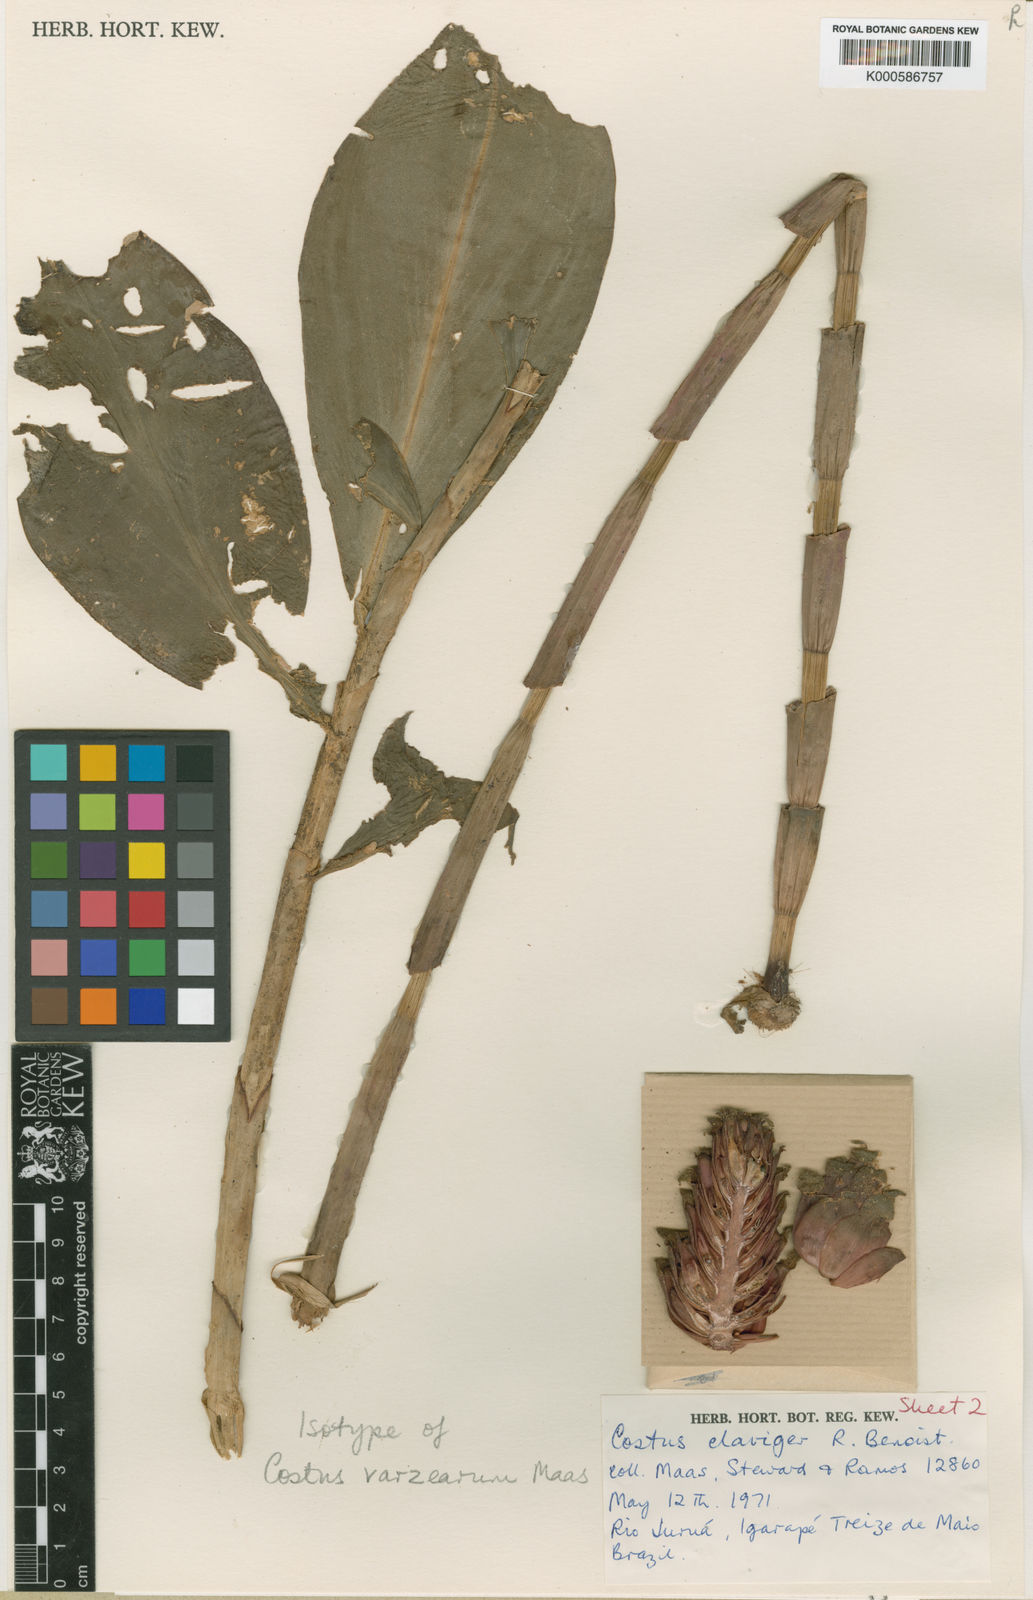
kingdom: Plantae
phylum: Tracheophyta
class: Liliopsida
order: Zingiberales
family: Costaceae
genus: Costus
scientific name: Costus varzearum
